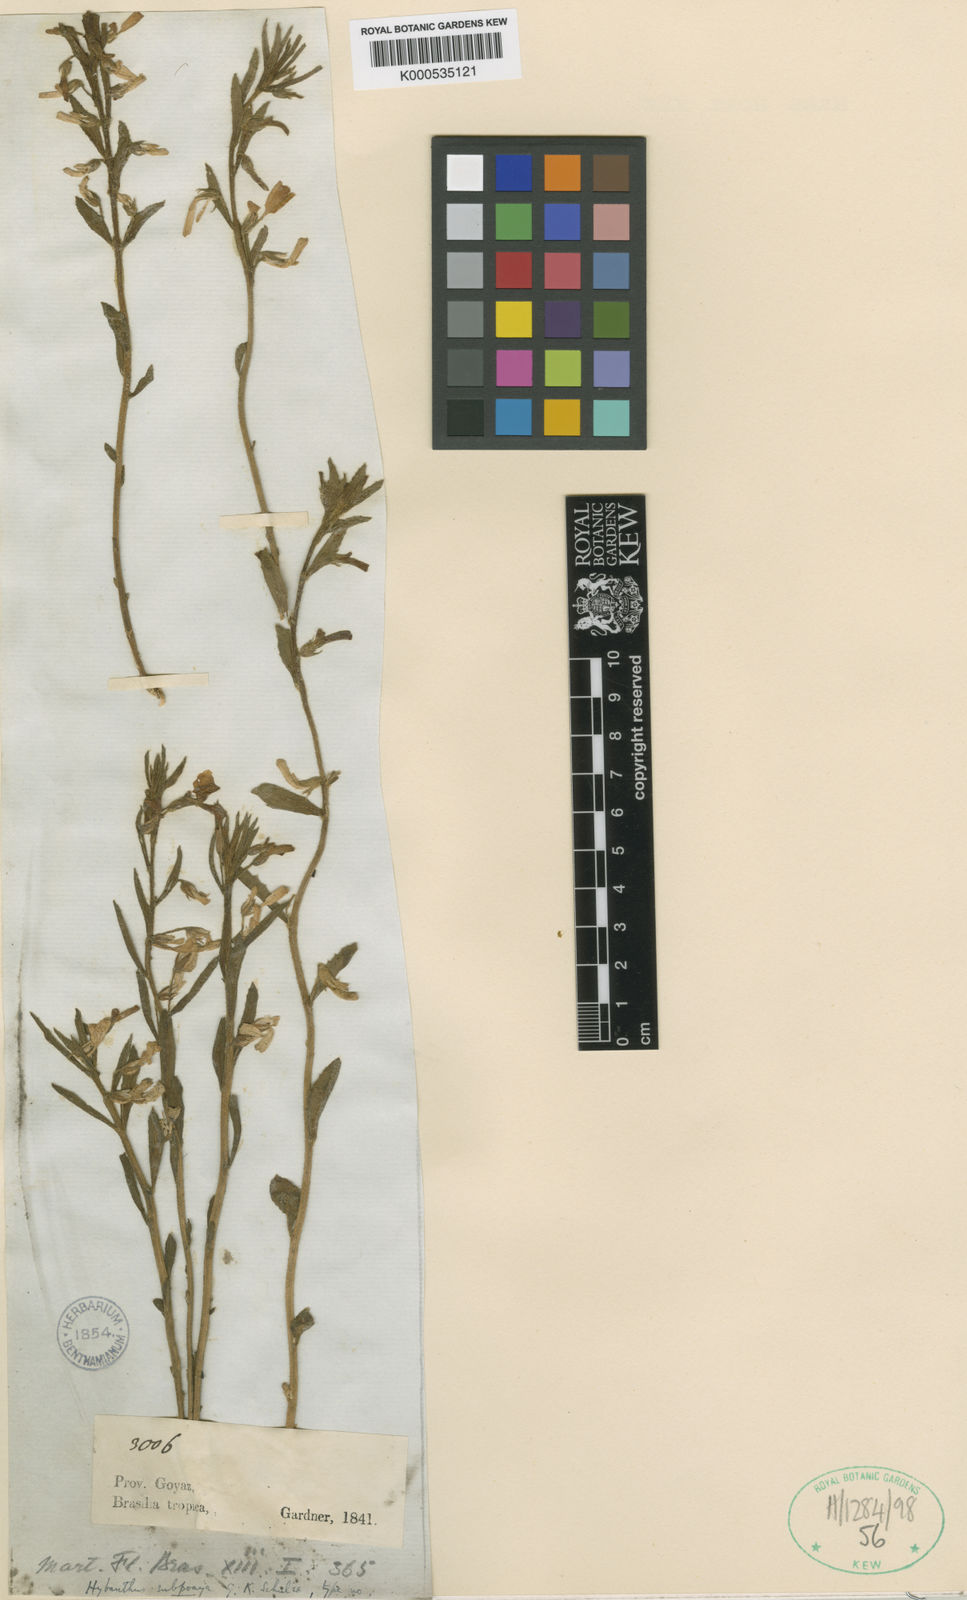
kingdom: Plantae
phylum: Tracheophyta
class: Magnoliopsida
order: Malpighiales
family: Violaceae
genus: Pombalia
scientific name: Pombalia lanata
